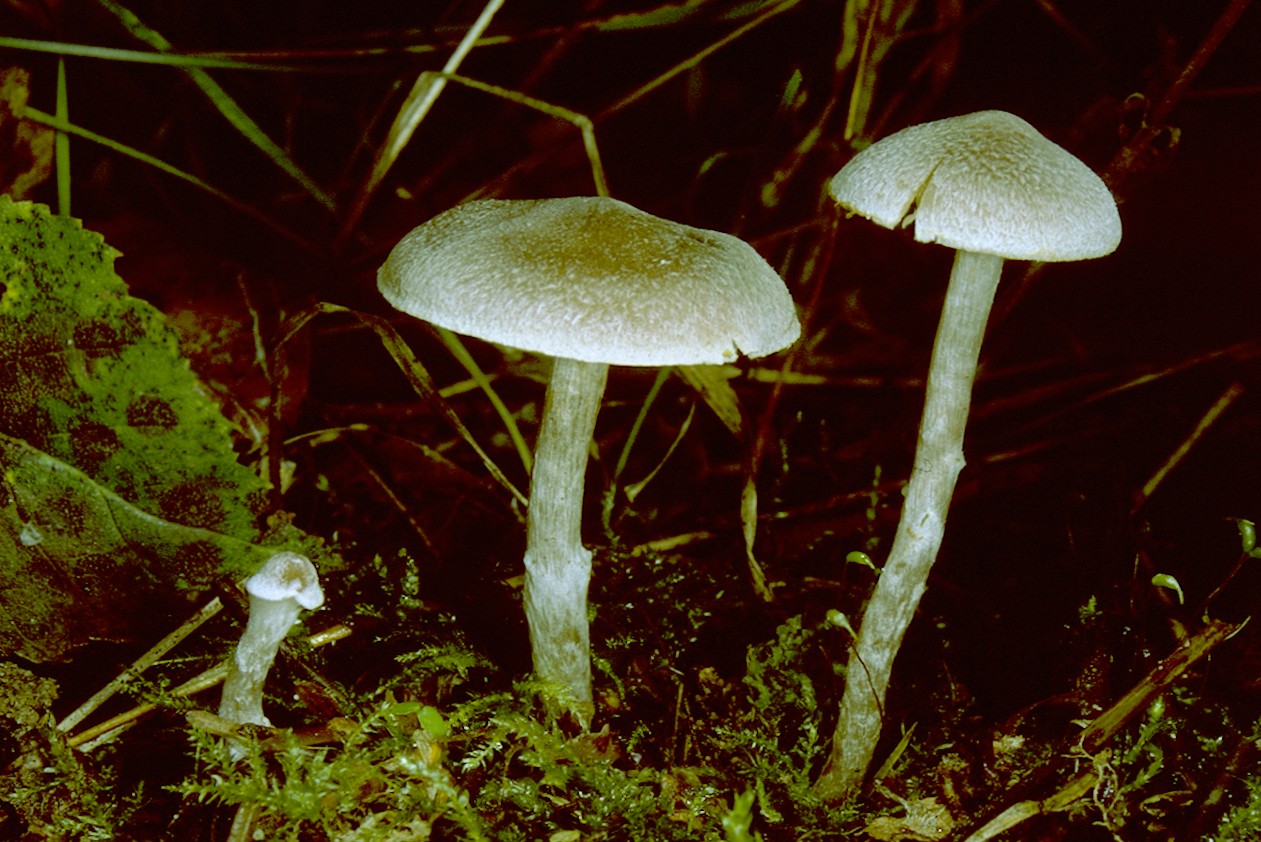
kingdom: Fungi
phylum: Basidiomycota
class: Agaricomycetes
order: Agaricales
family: Cortinariaceae
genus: Cortinarius
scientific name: Cortinarius hemitrichus
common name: hvidfnugget slørhat
